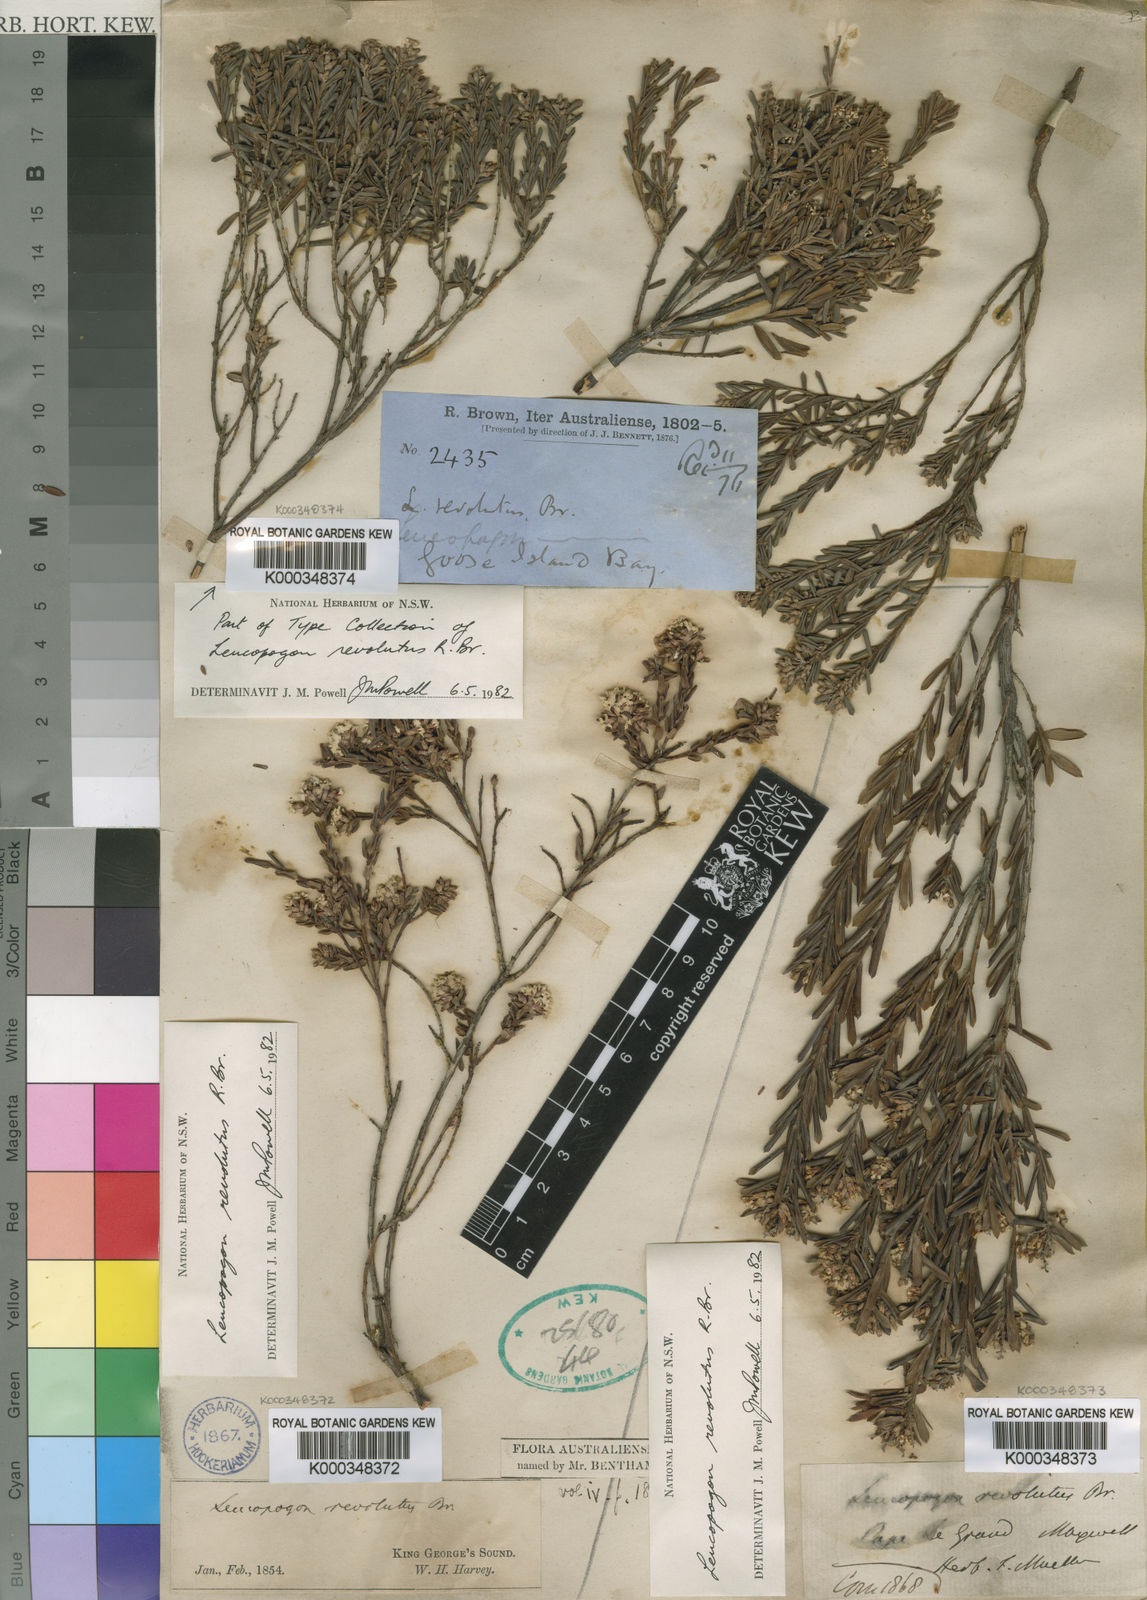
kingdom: Plantae
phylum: Tracheophyta
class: Magnoliopsida
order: Ericales
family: Ericaceae
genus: Leucopogon
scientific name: Leucopogon obovatus
